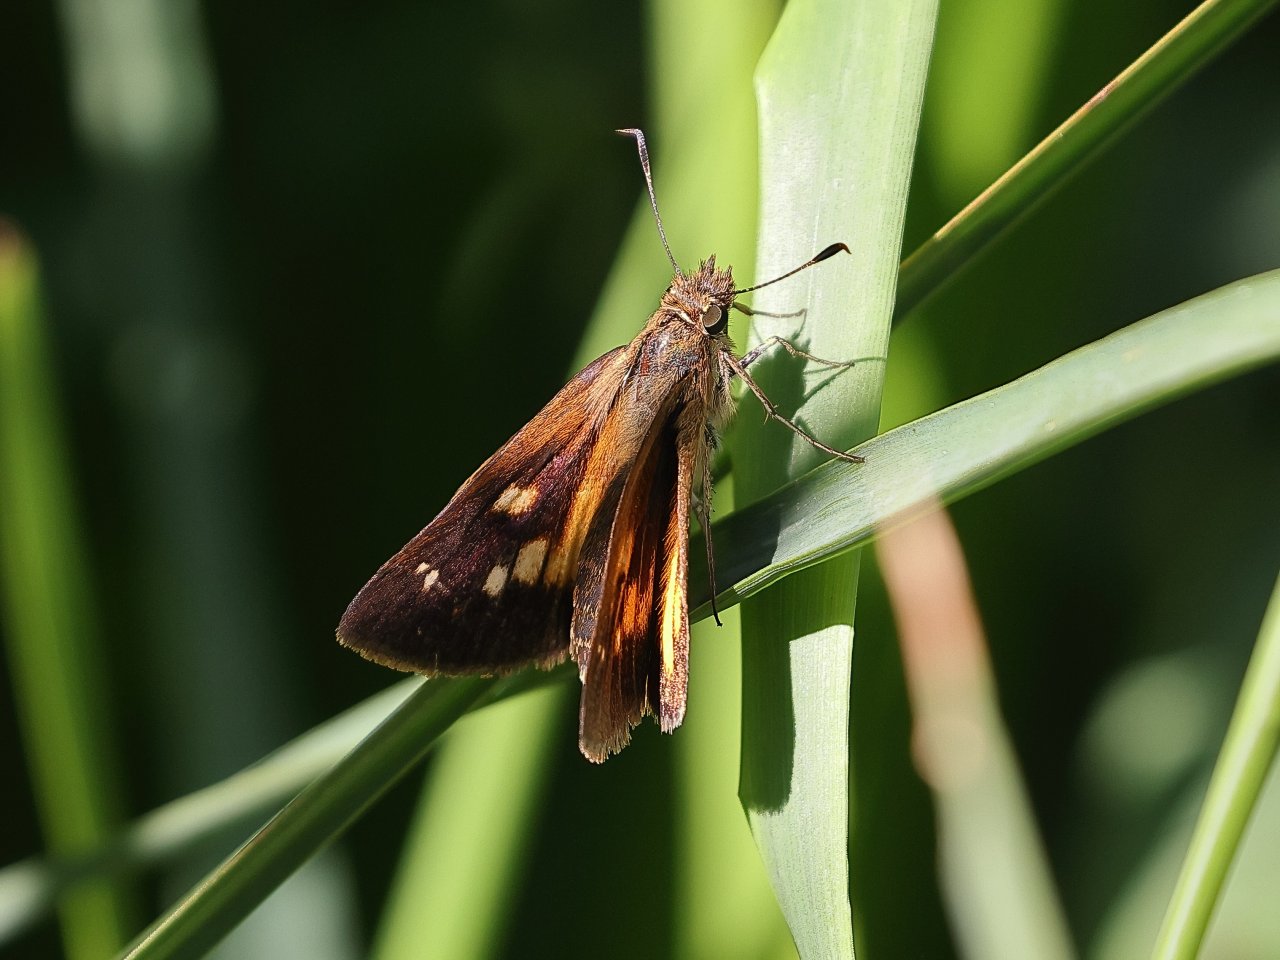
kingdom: Animalia
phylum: Arthropoda
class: Insecta
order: Lepidoptera
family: Hesperiidae
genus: Poanes
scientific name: Poanes viator
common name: Broad-winged Skipper
